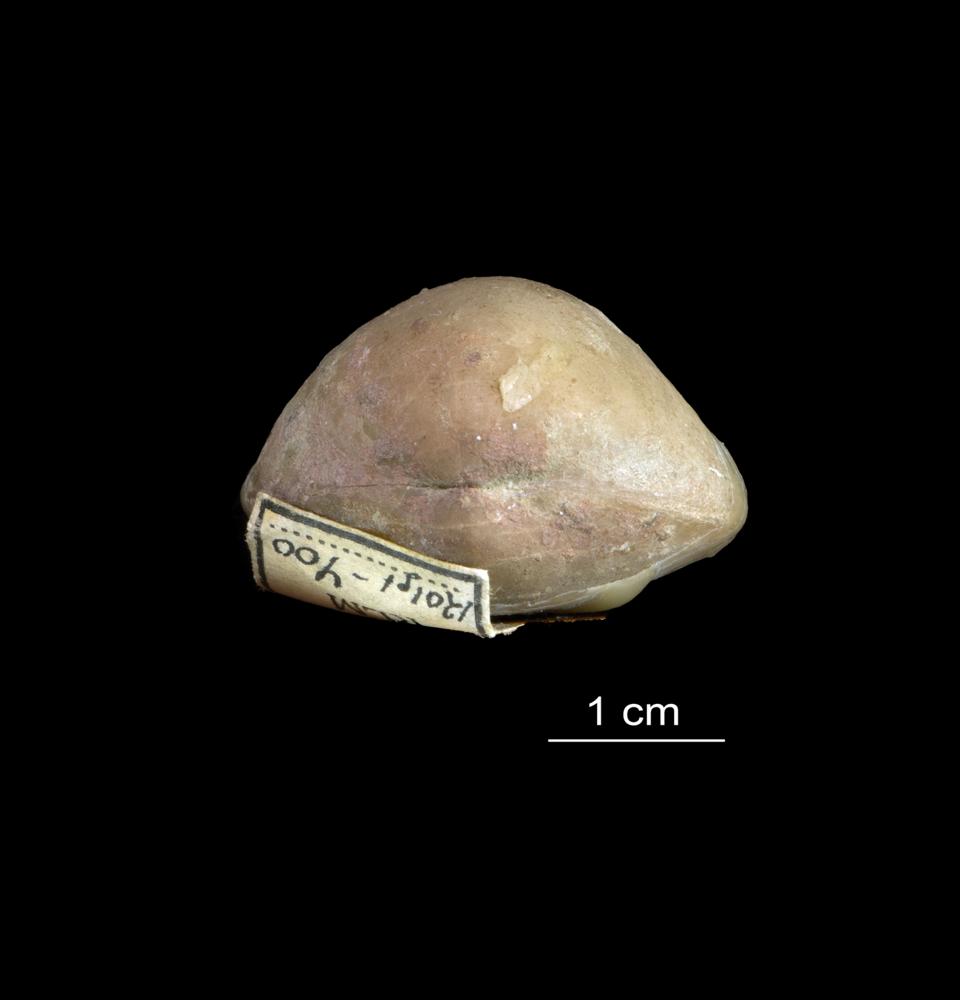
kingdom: Animalia
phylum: Brachiopoda
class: Rhynchonellata
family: Porambonitidae
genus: Porambonites
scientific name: Porambonites
